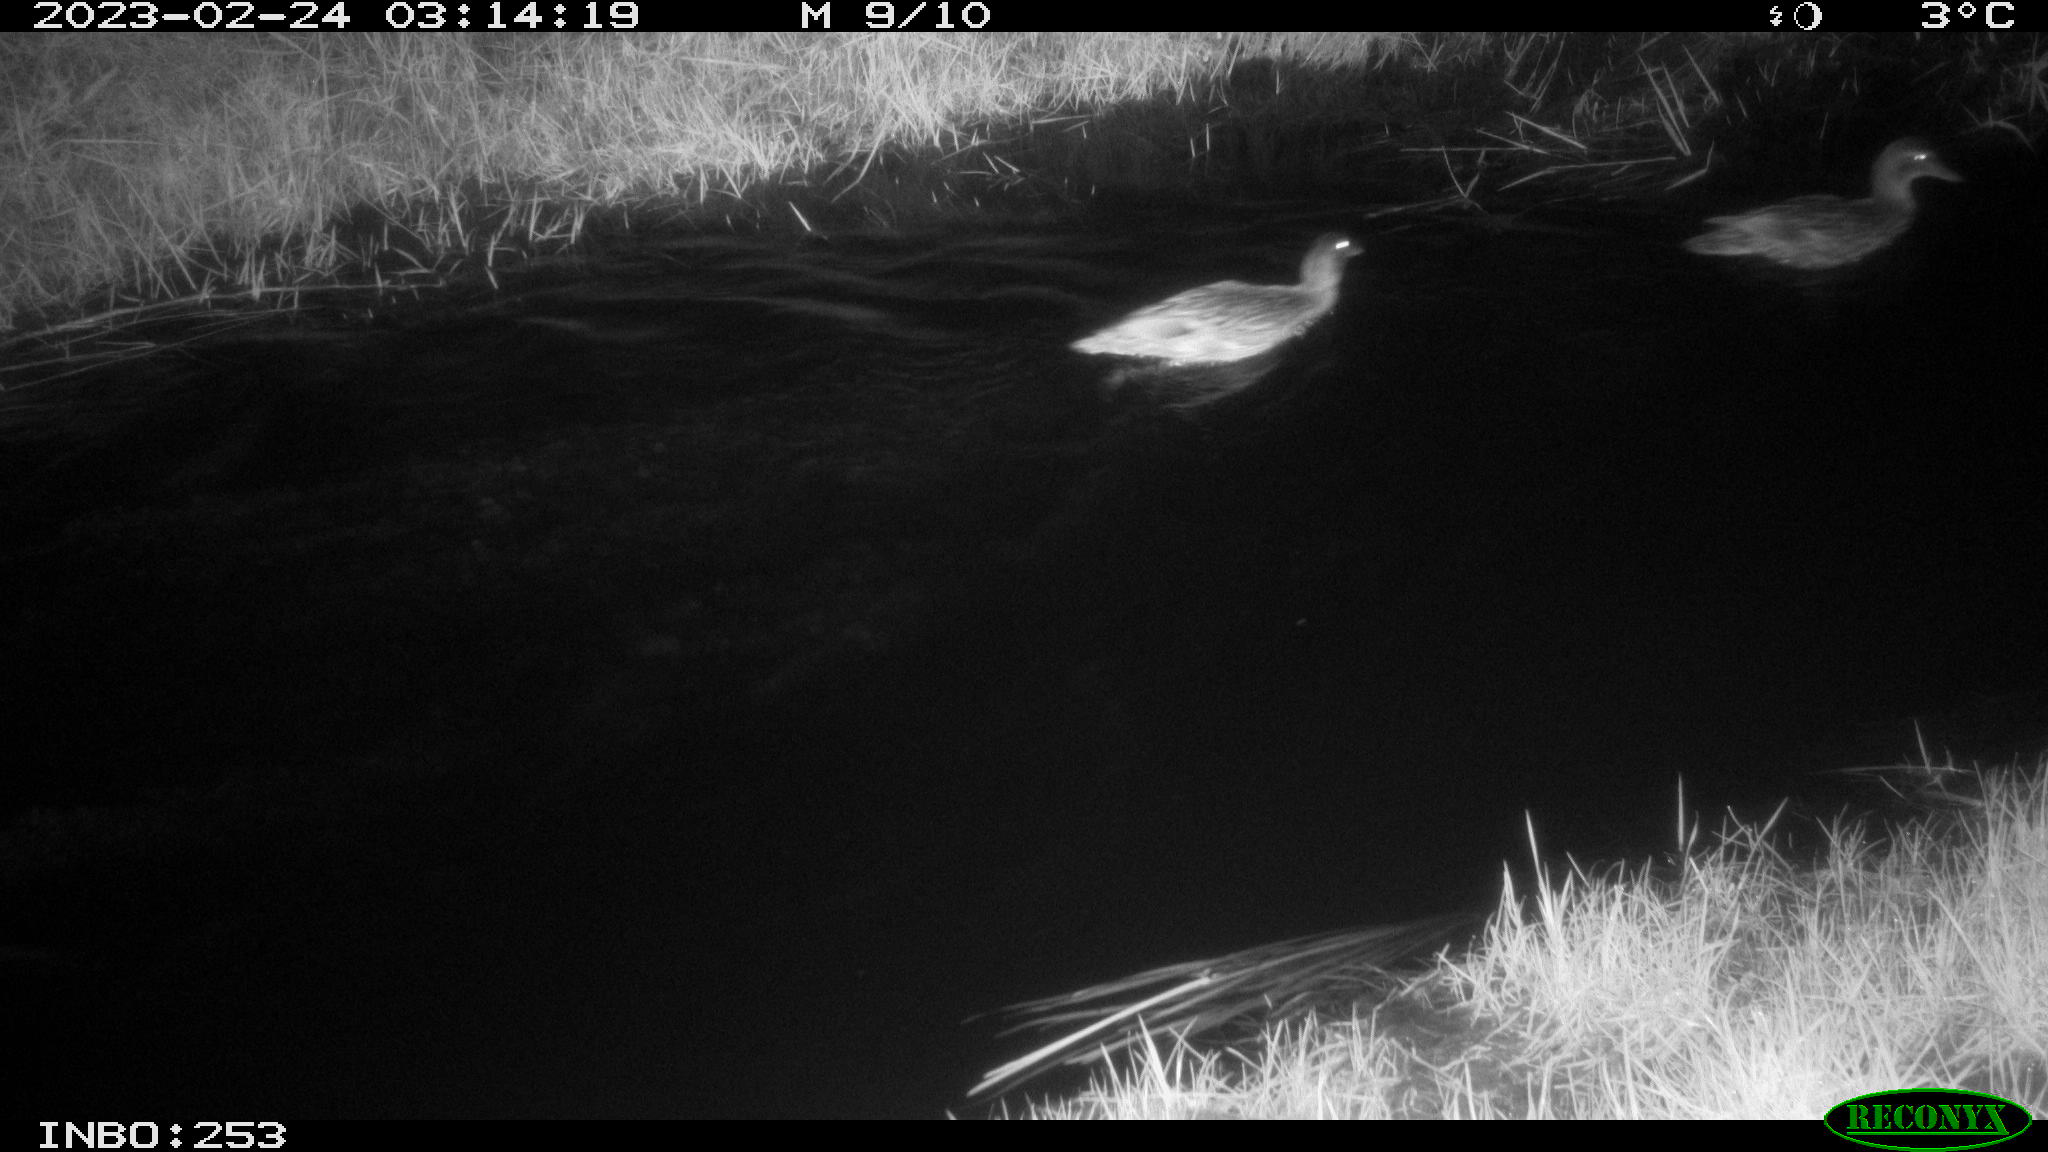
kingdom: Animalia
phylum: Chordata
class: Aves
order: Anseriformes
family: Anatidae
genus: Anas
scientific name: Anas
